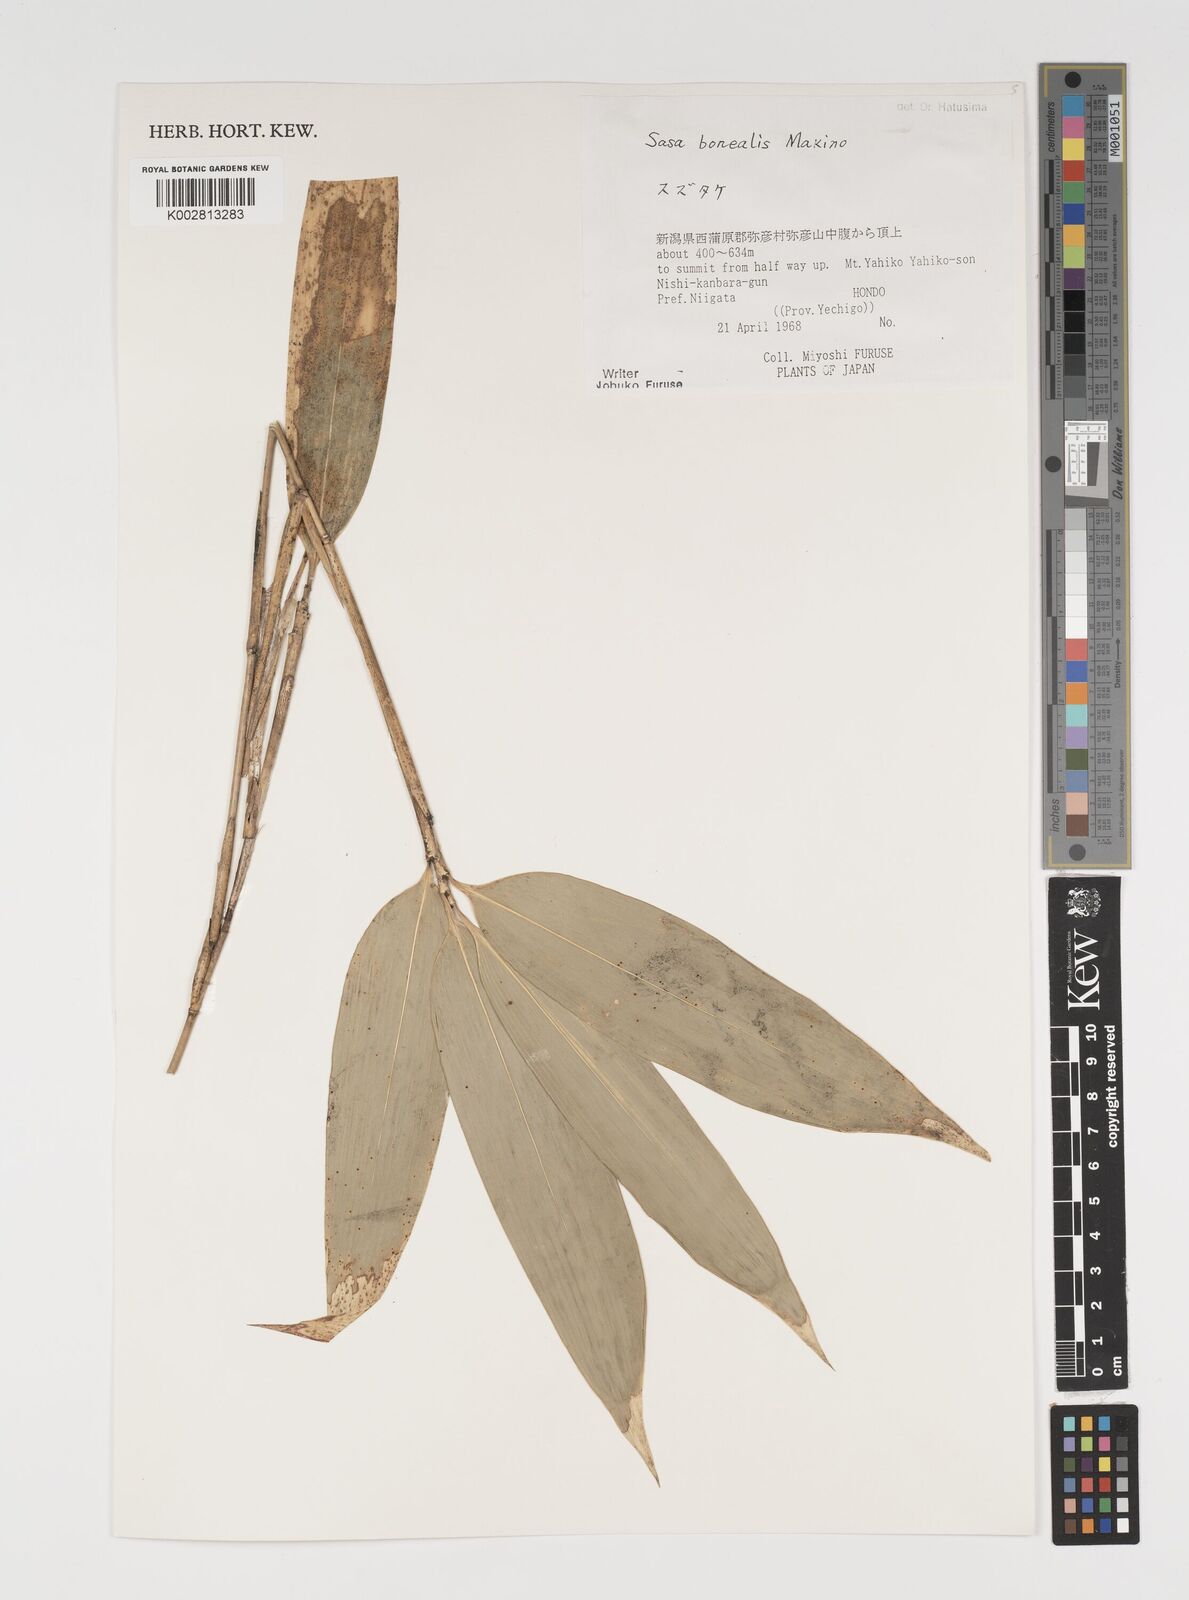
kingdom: Plantae
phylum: Tracheophyta
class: Liliopsida
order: Poales
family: Poaceae
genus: Sasamorpha
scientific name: Sasamorpha borealis
